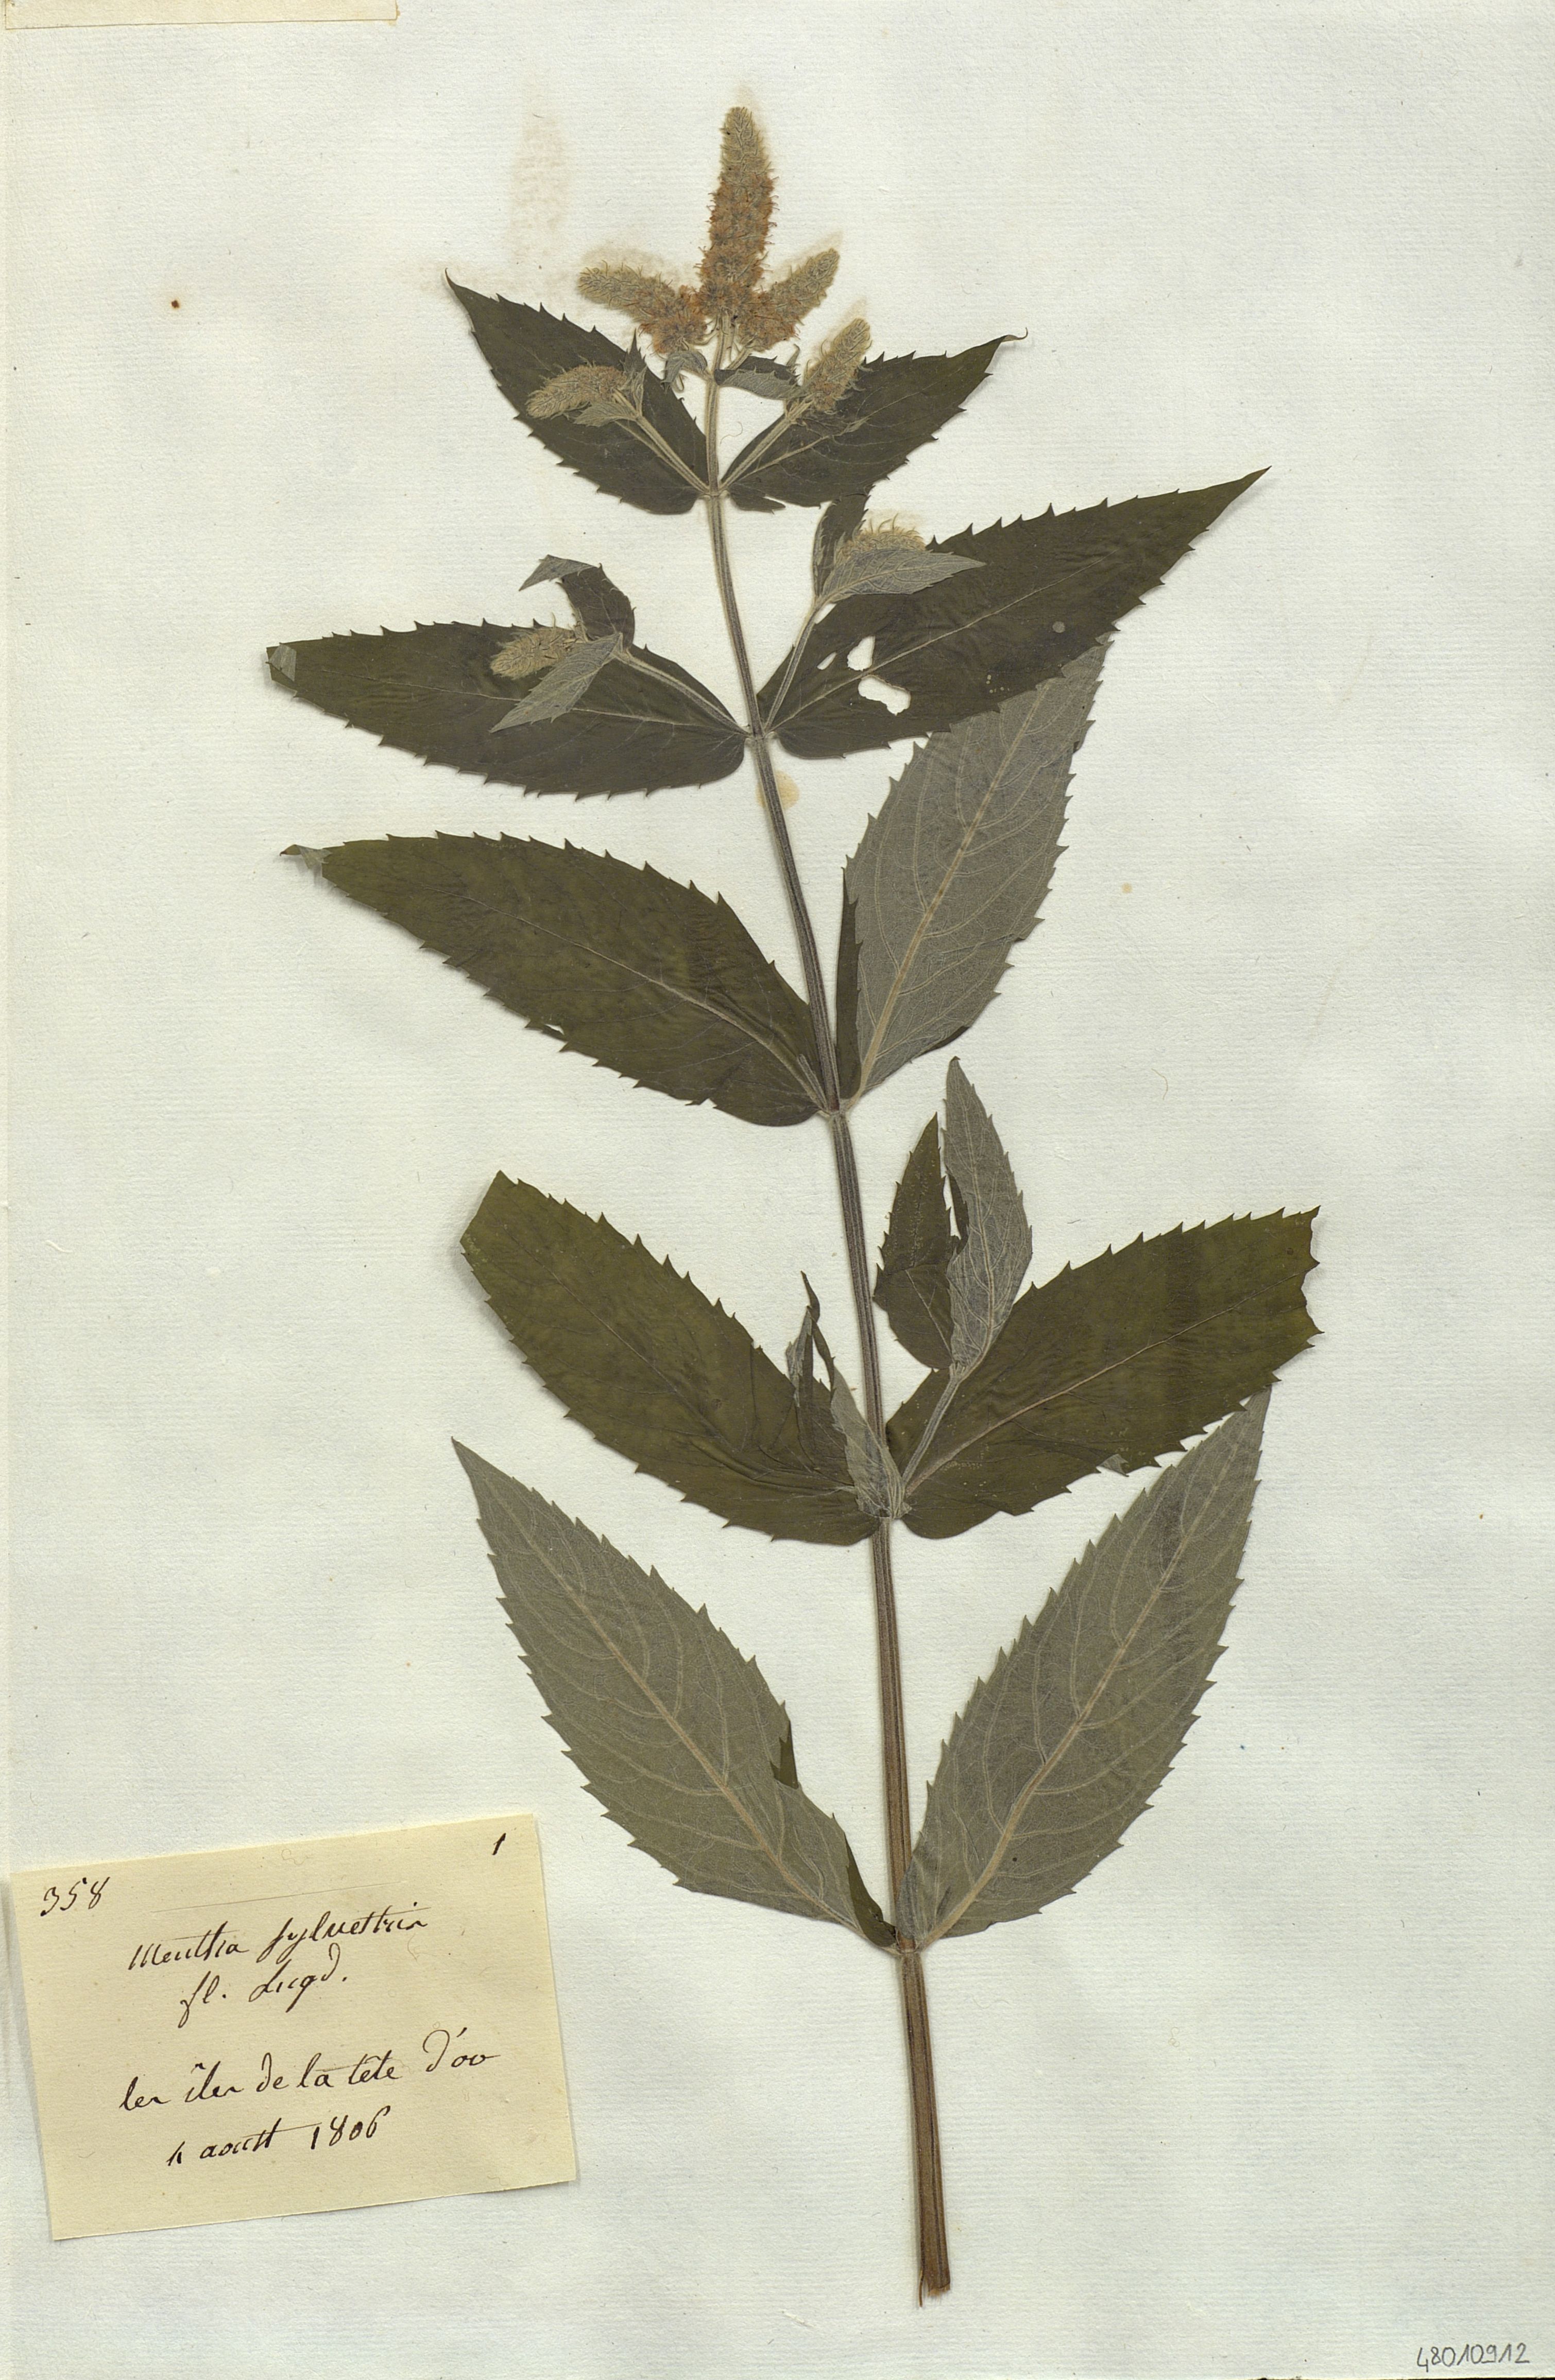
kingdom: Plantae
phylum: Tracheophyta
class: Magnoliopsida
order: Lamiales
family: Lamiaceae
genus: Mentha
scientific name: Mentha
